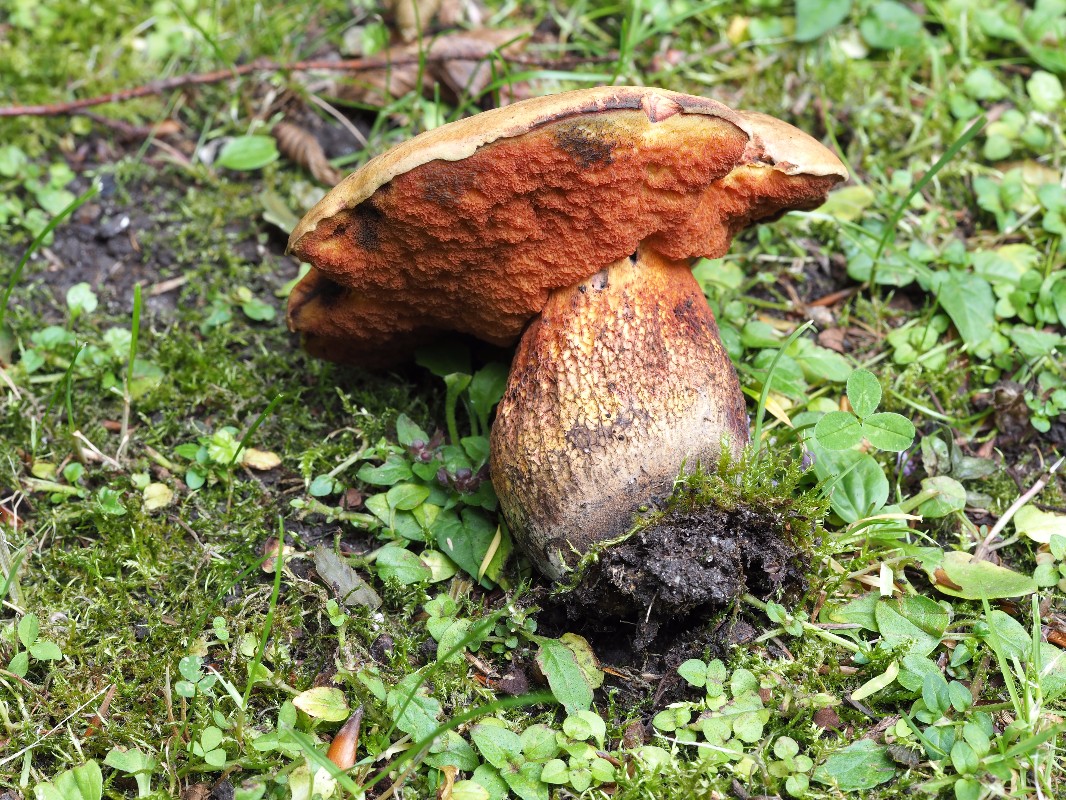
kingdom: Fungi
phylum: Basidiomycota
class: Agaricomycetes
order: Boletales
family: Boletaceae
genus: Suillellus
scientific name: Suillellus luridus
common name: netstokket indigorørhat
